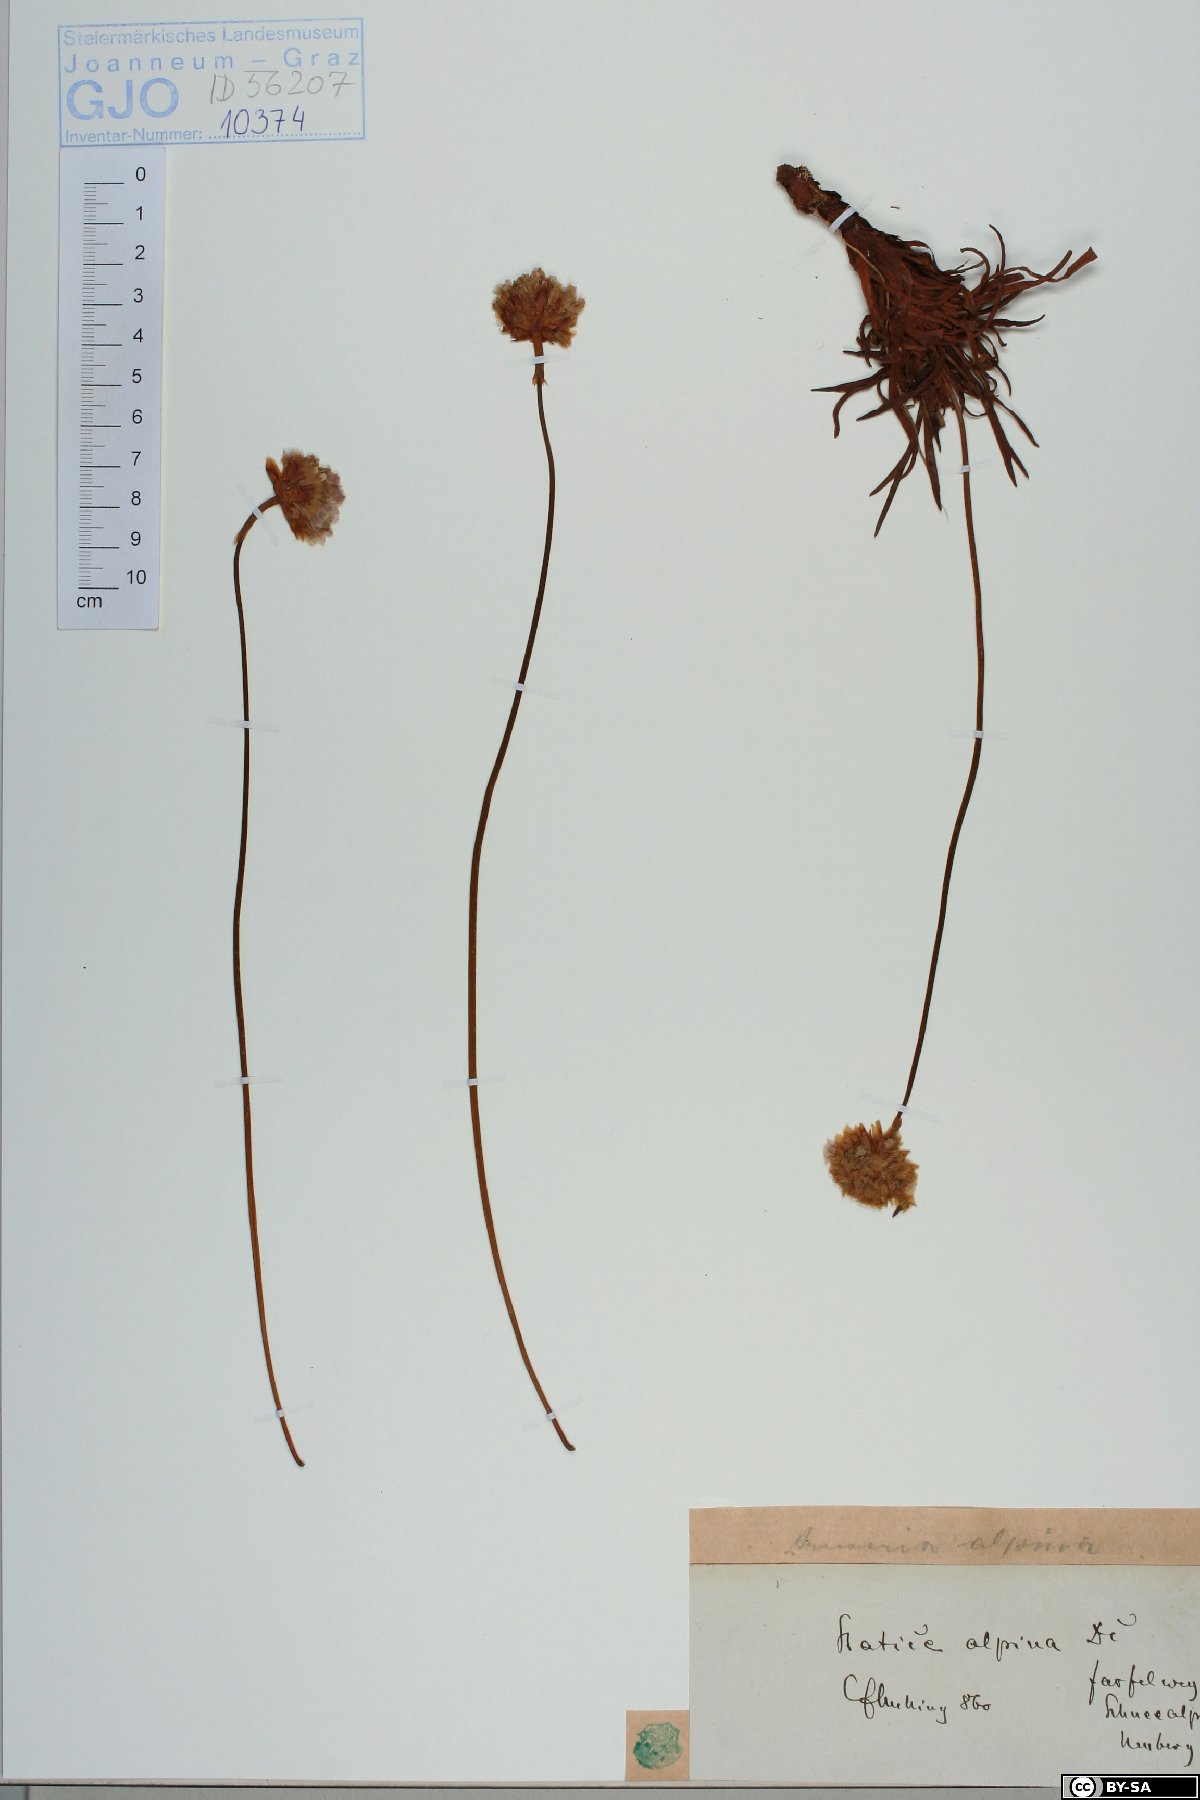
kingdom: Plantae
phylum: Tracheophyta
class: Magnoliopsida
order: Caryophyllales
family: Plumbaginaceae
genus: Armeria
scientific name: Armeria alpina
